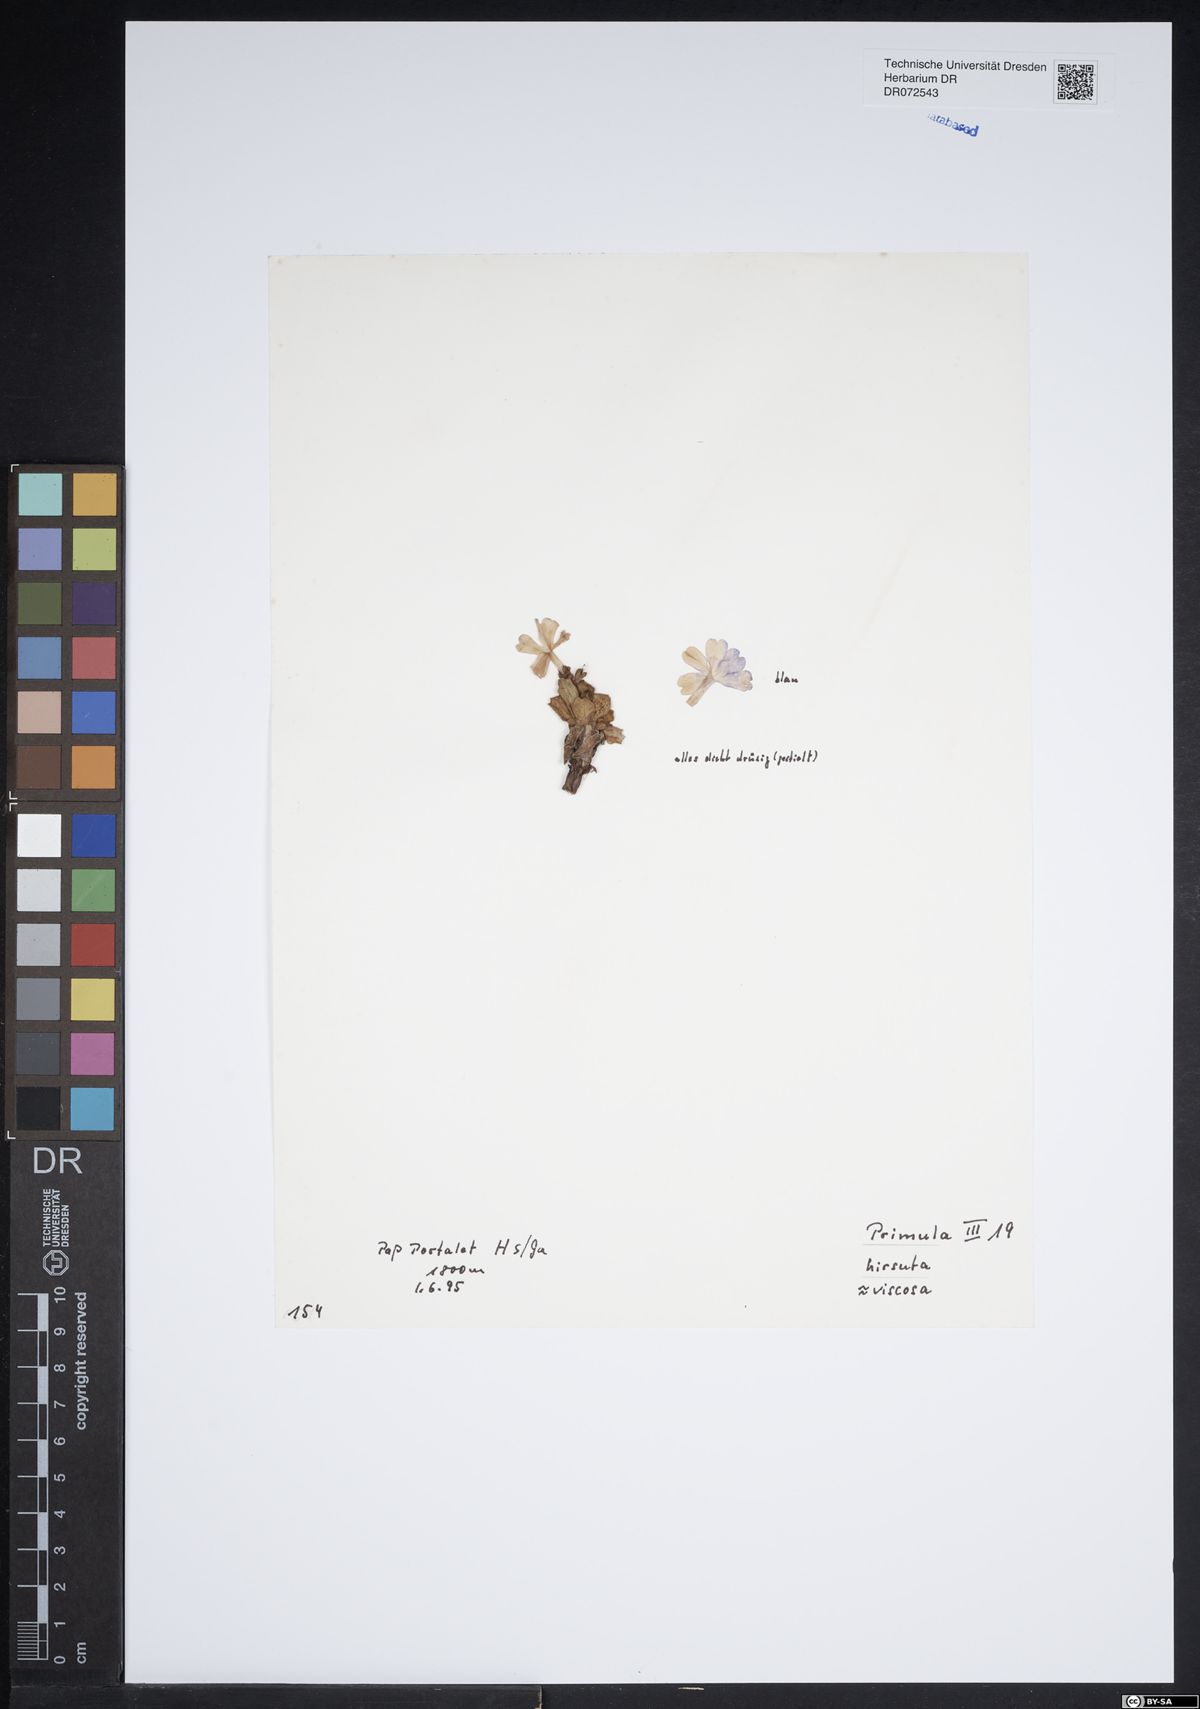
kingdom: Plantae
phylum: Tracheophyta
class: Magnoliopsida
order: Ericales
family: Primulaceae
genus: Primula
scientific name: Primula hirsuta
